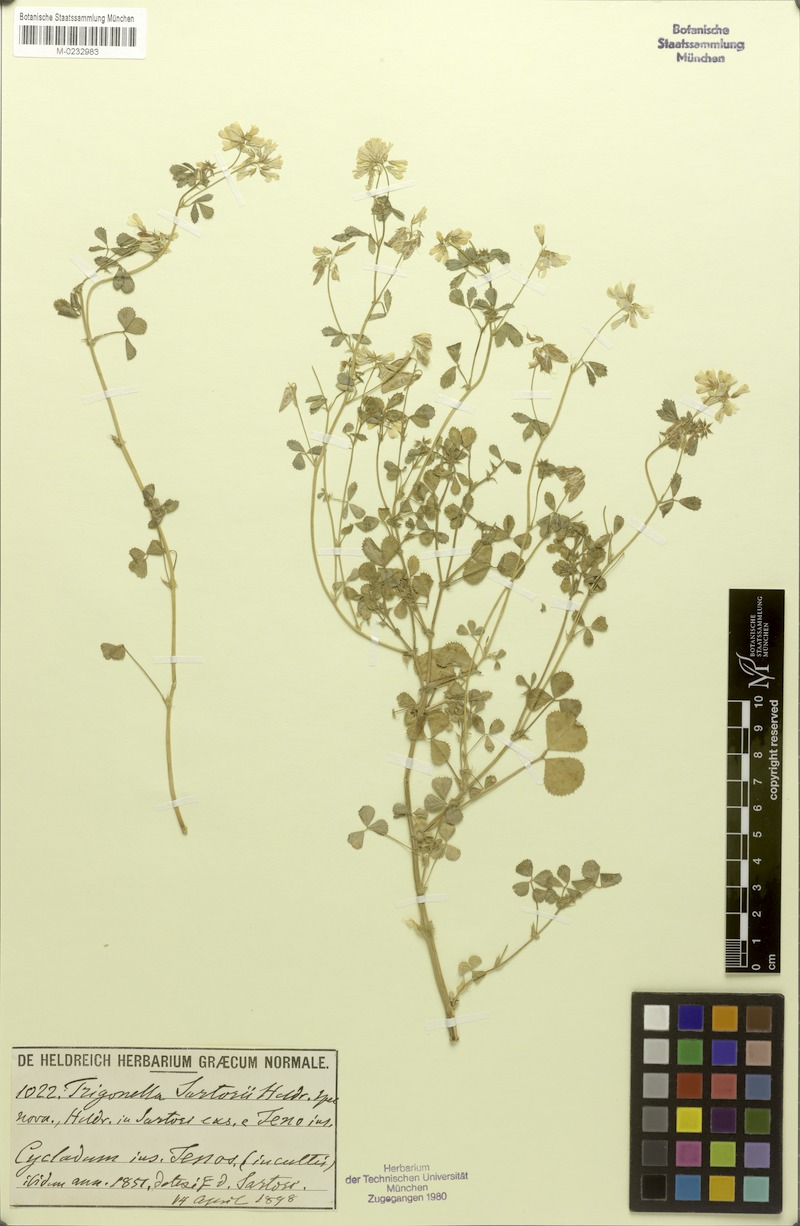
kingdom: Plantae
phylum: Tracheophyta
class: Magnoliopsida
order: Fabales
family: Fabaceae
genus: Trigonella
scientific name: Trigonella balansae
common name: Sickle-fruited fenugreek
